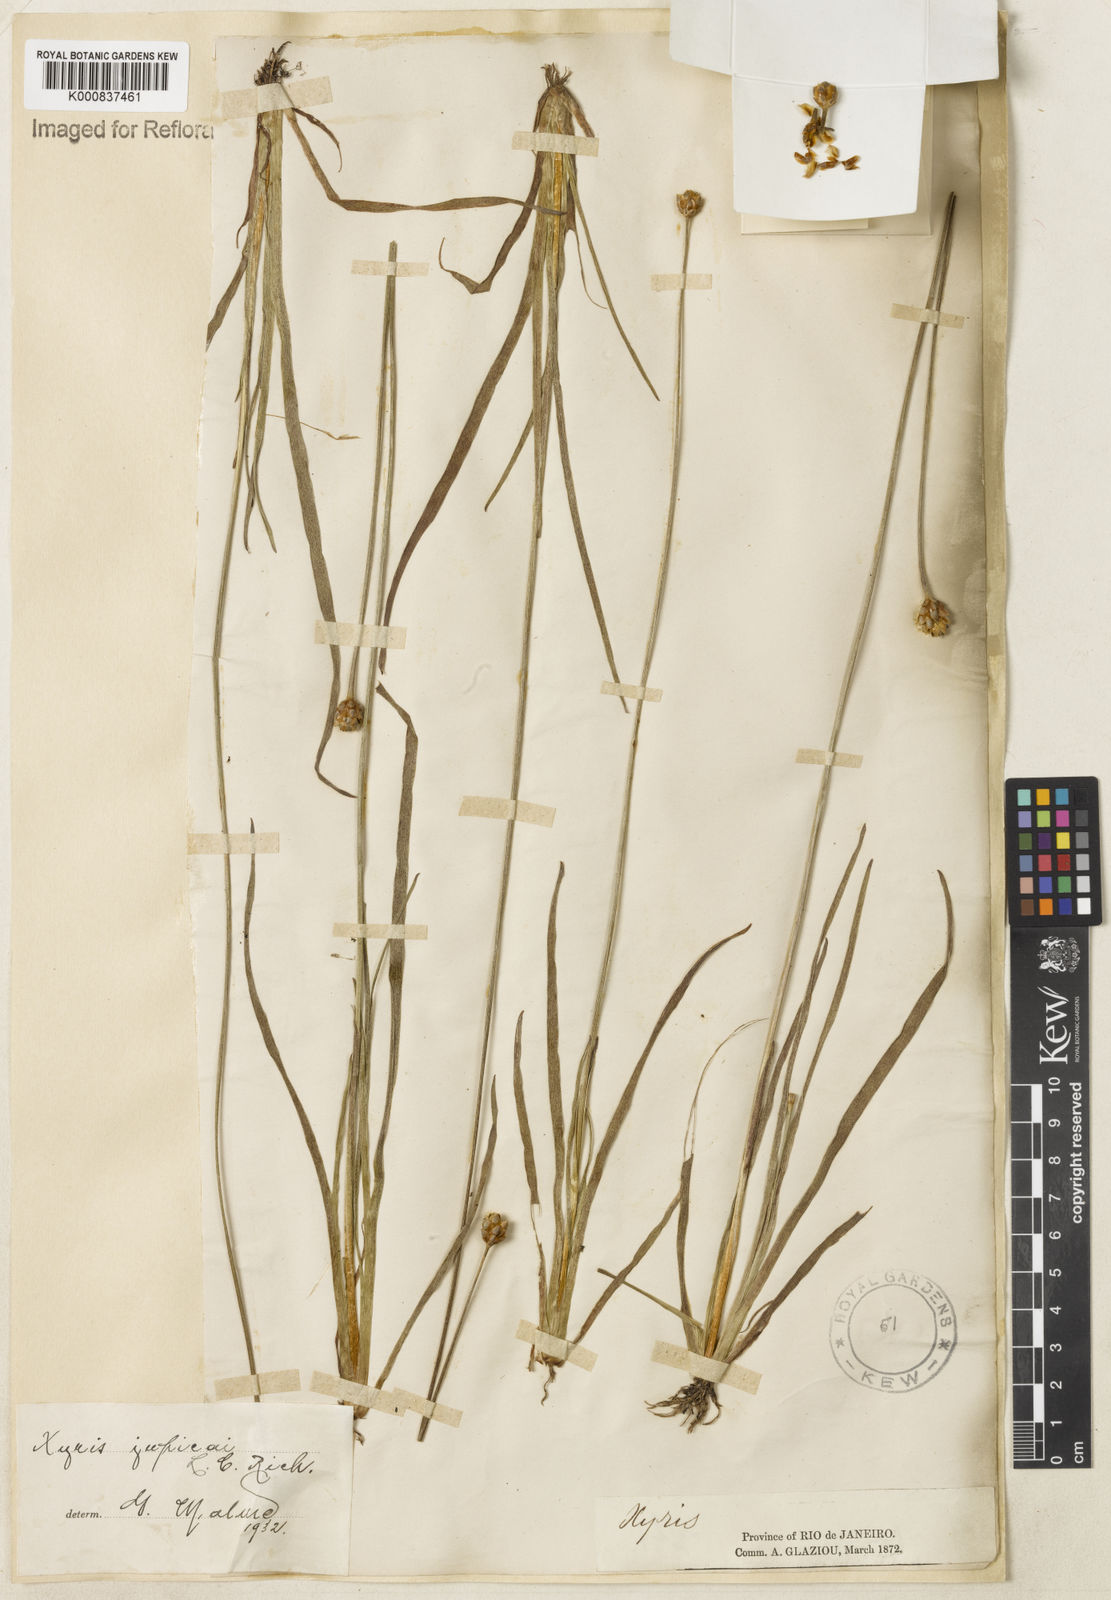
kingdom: Plantae
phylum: Tracheophyta
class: Liliopsida
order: Poales
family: Xyridaceae
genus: Xyris
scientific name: Xyris jupicai
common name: Richard's yelloweyed grass
